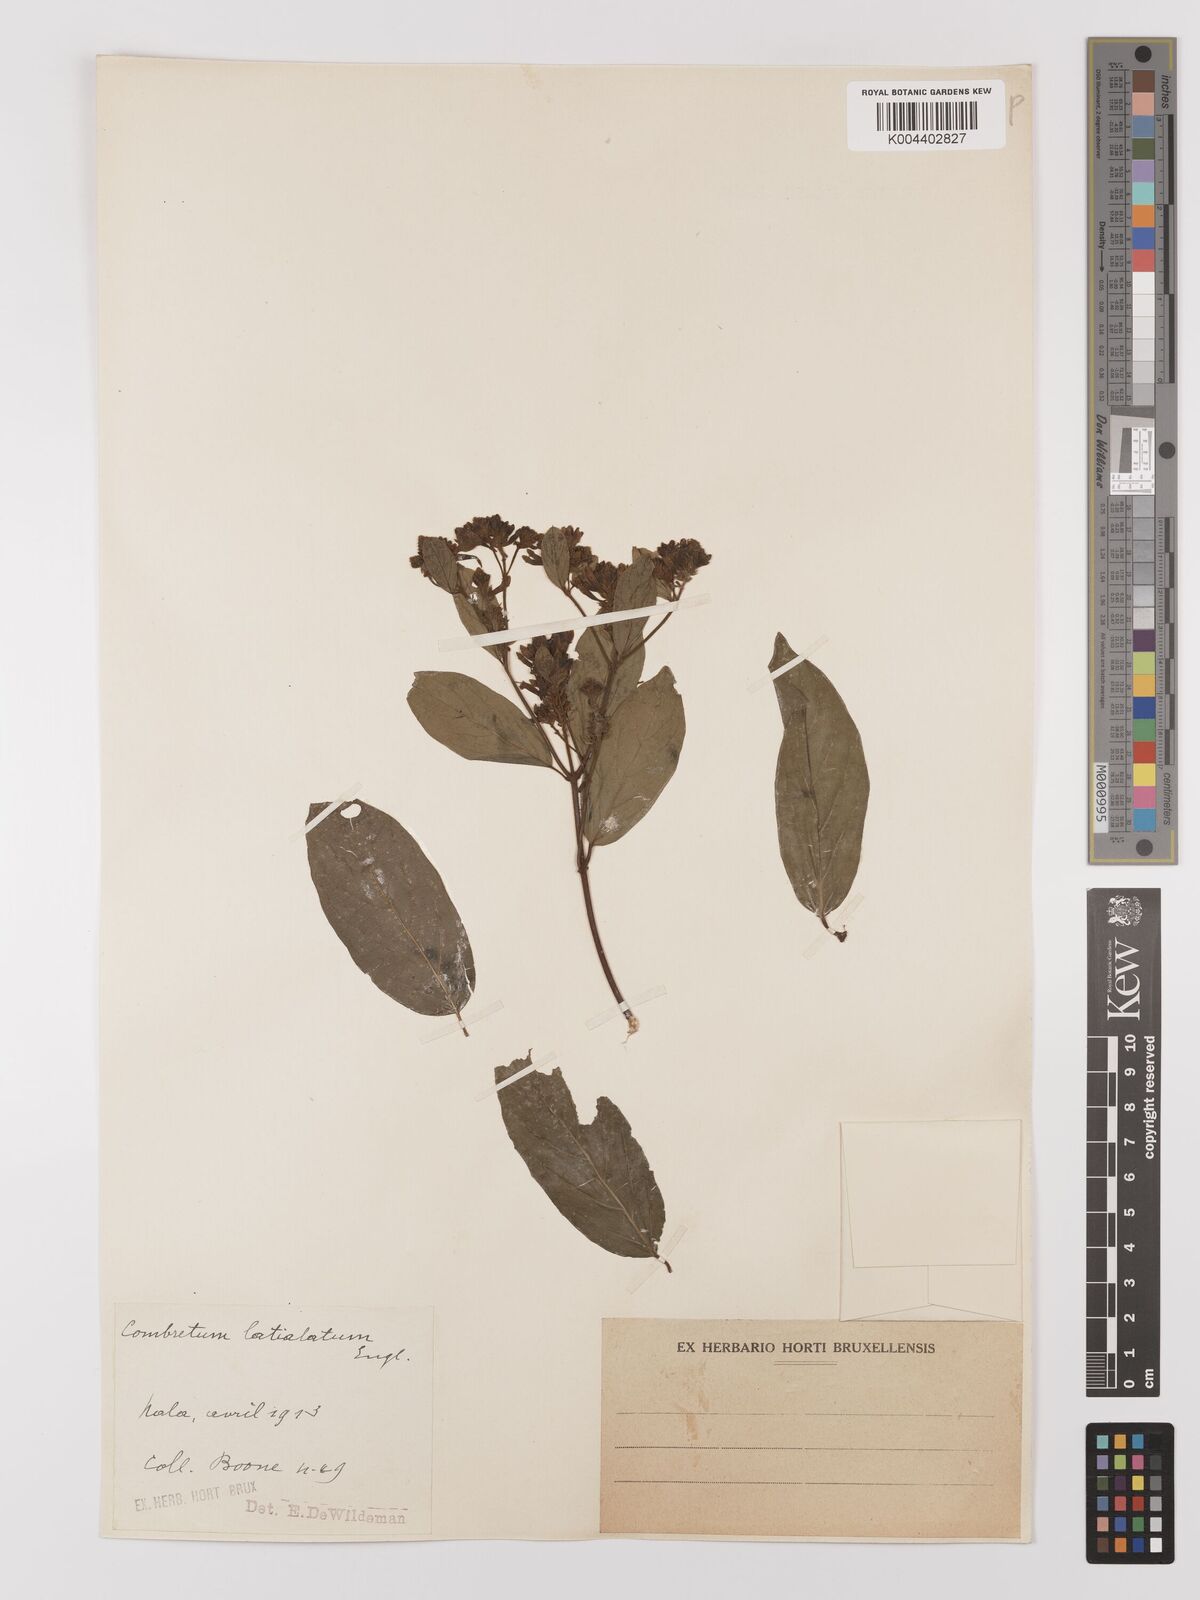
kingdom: Plantae
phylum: Tracheophyta
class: Magnoliopsida
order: Myrtales
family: Combretaceae
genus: Combretum
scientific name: Combretum latialatum
